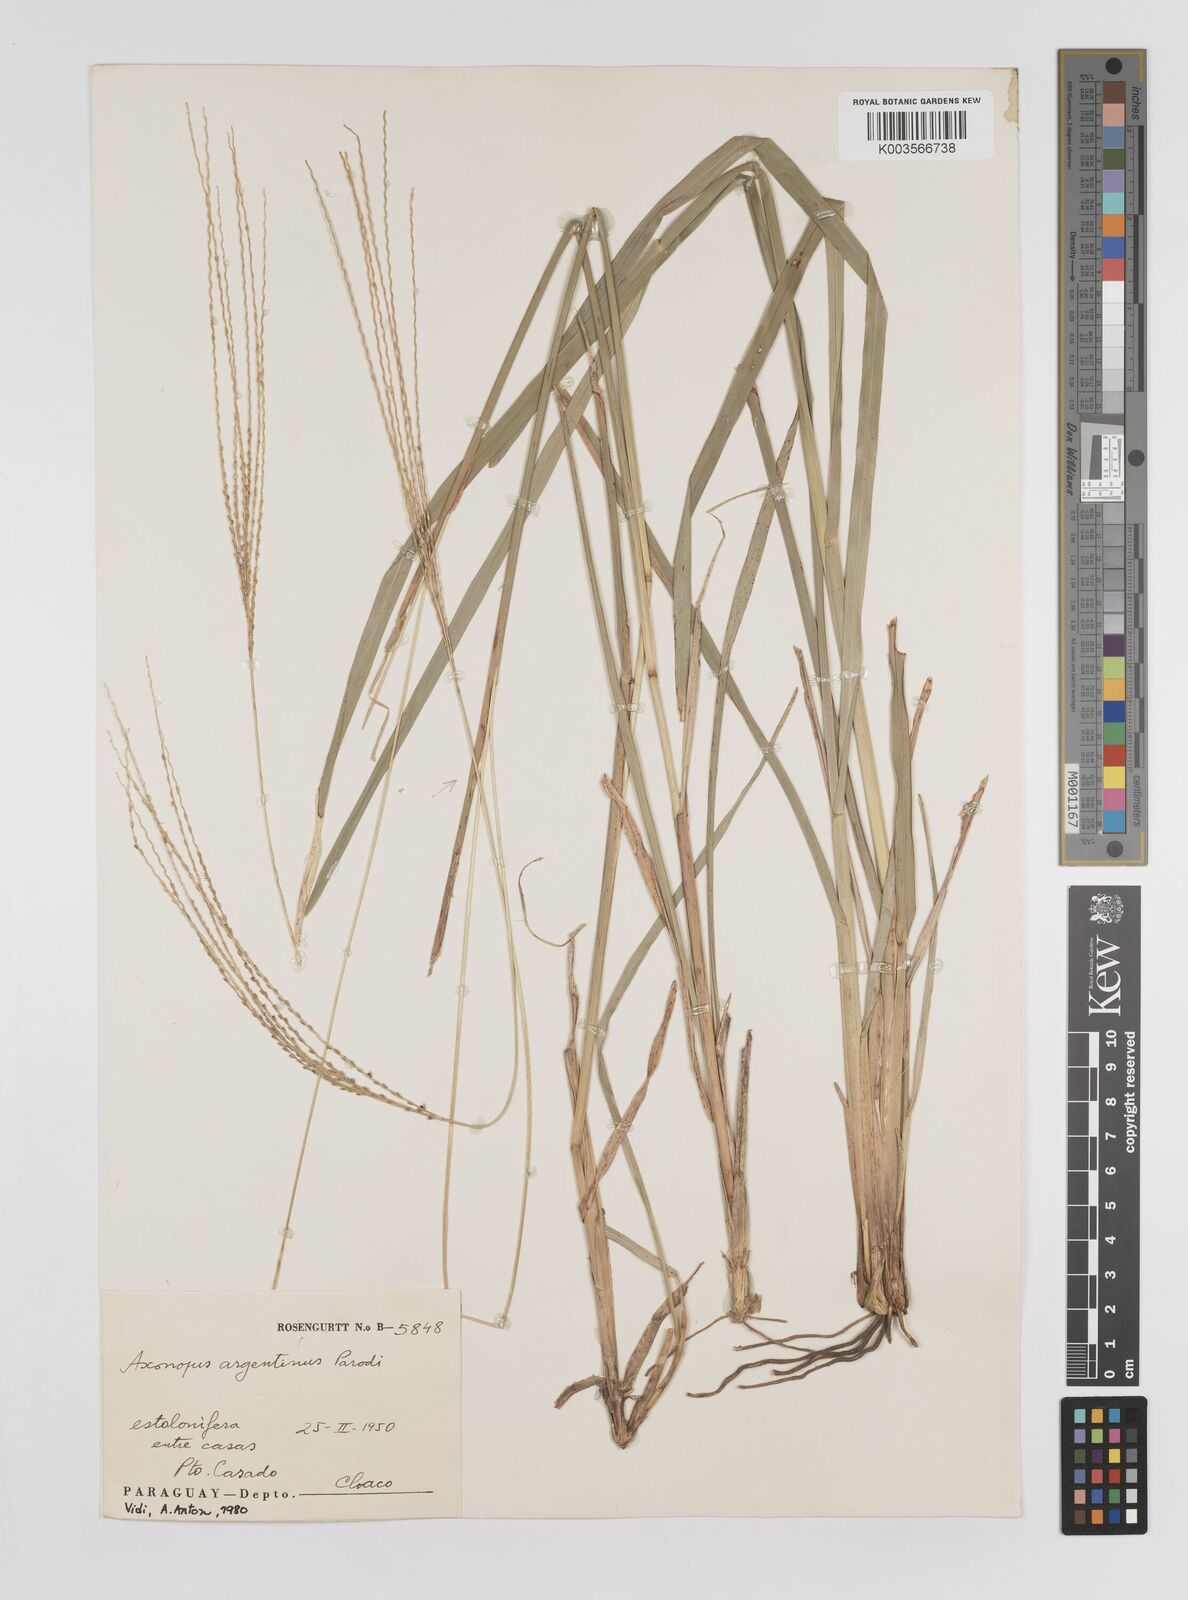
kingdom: Plantae
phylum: Tracheophyta
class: Liliopsida
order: Poales
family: Poaceae
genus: Axonopus
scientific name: Axonopus argentinus
